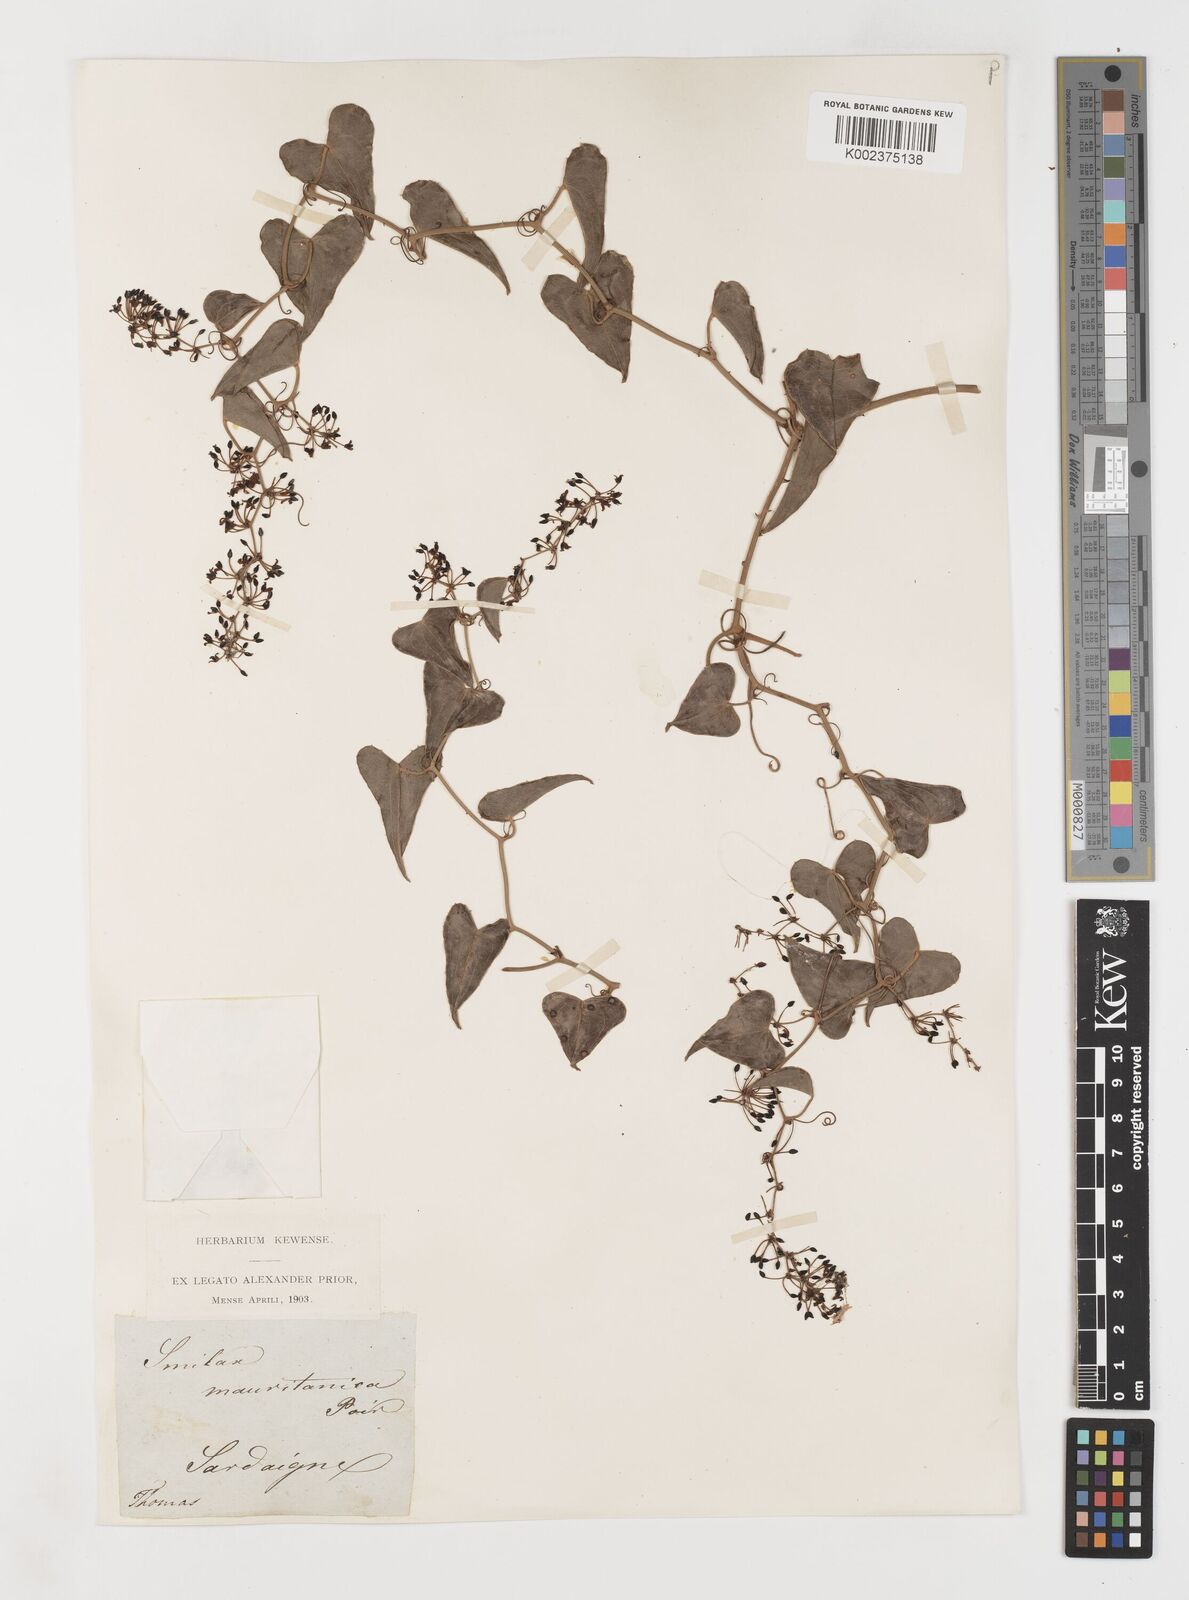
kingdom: Plantae
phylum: Tracheophyta
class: Liliopsida
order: Liliales
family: Smilacaceae
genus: Smilax
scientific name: Smilax aspera
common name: Common smilax
